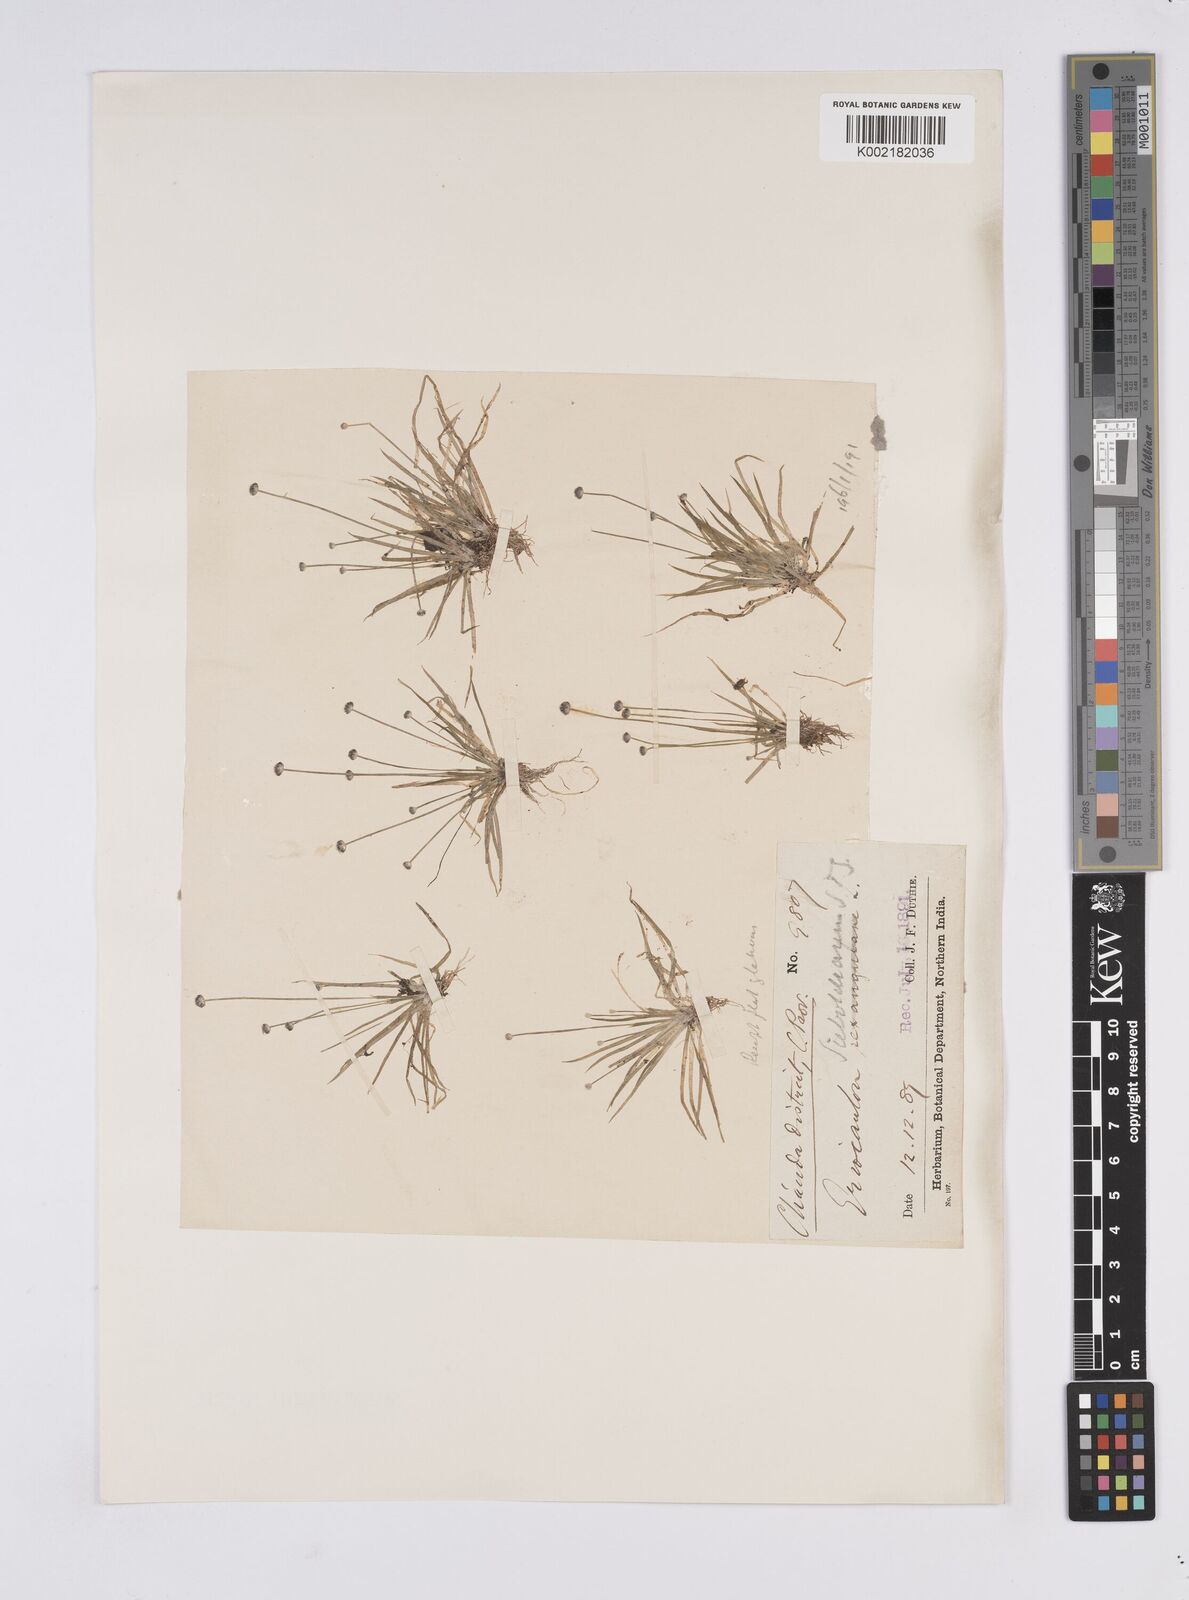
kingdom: Plantae
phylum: Tracheophyta
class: Liliopsida
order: Poales
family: Eriocaulaceae
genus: Eriocaulon
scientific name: Eriocaulon cinereum
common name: Ashy pipewort
